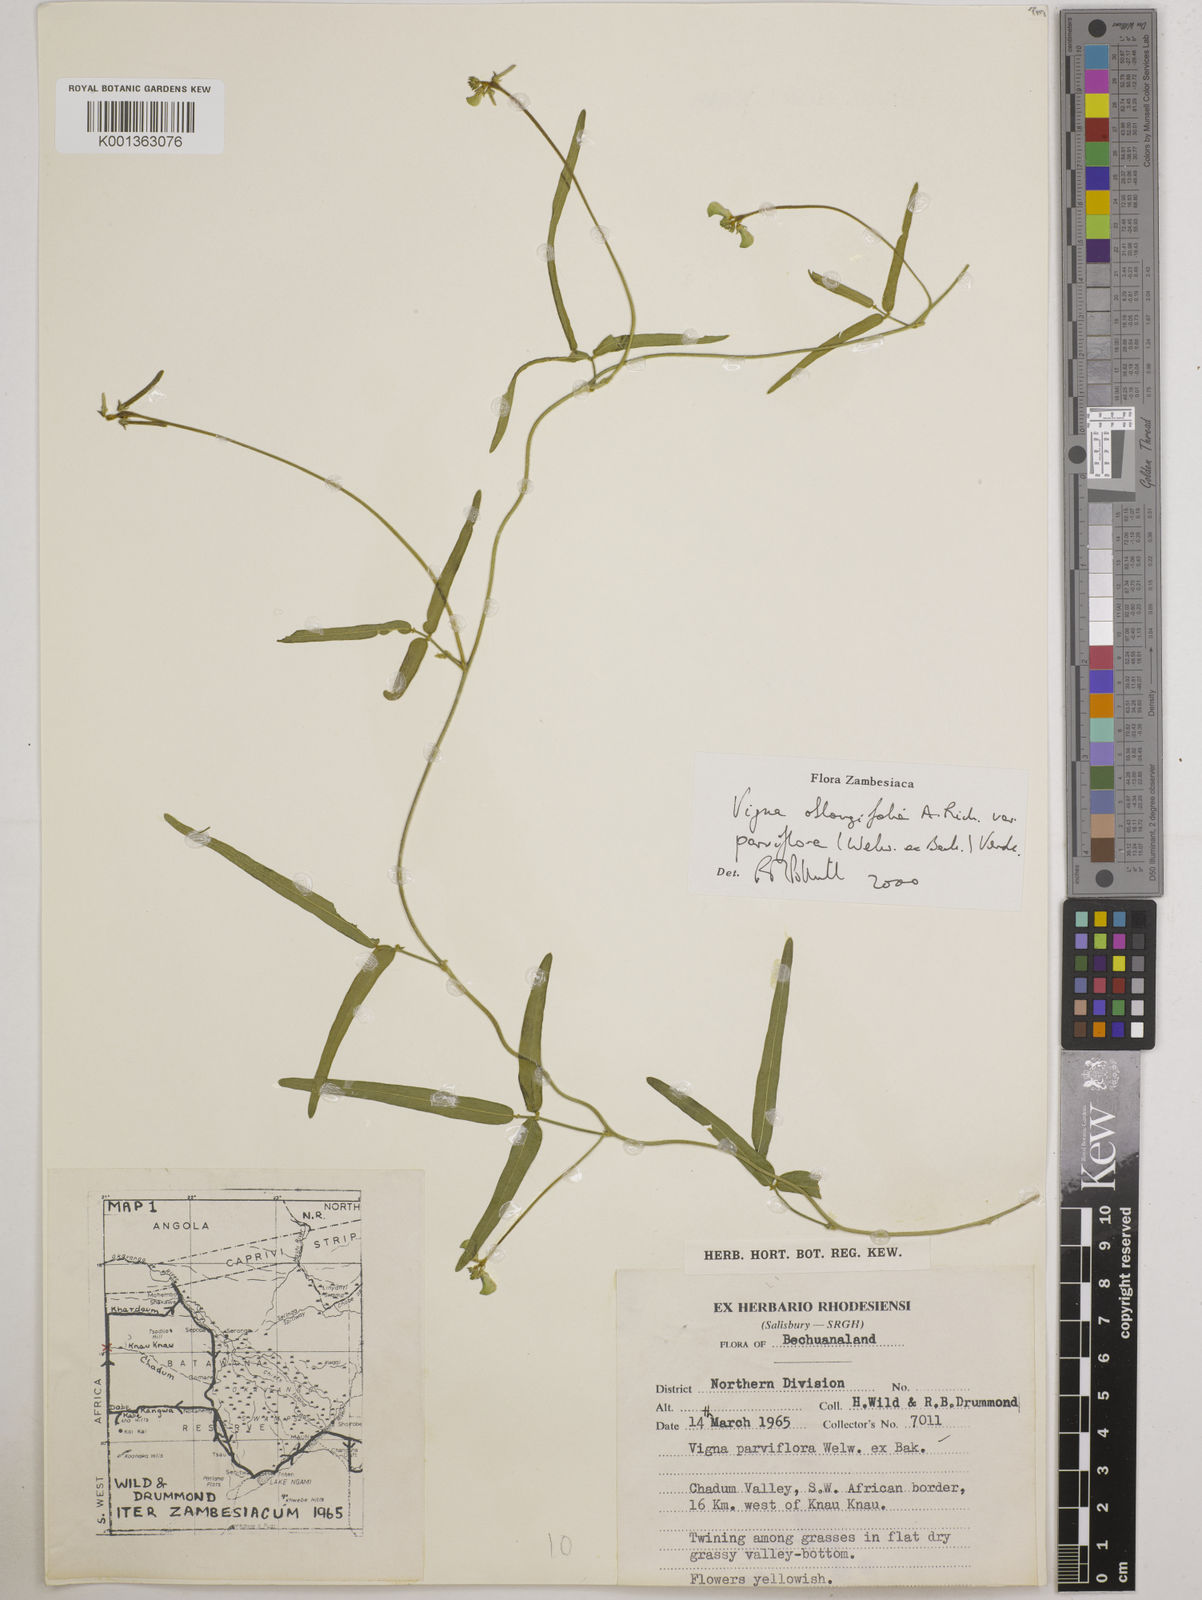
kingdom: Plantae
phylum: Tracheophyta
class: Magnoliopsida
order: Fabales
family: Fabaceae
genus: Vigna
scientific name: Vigna
